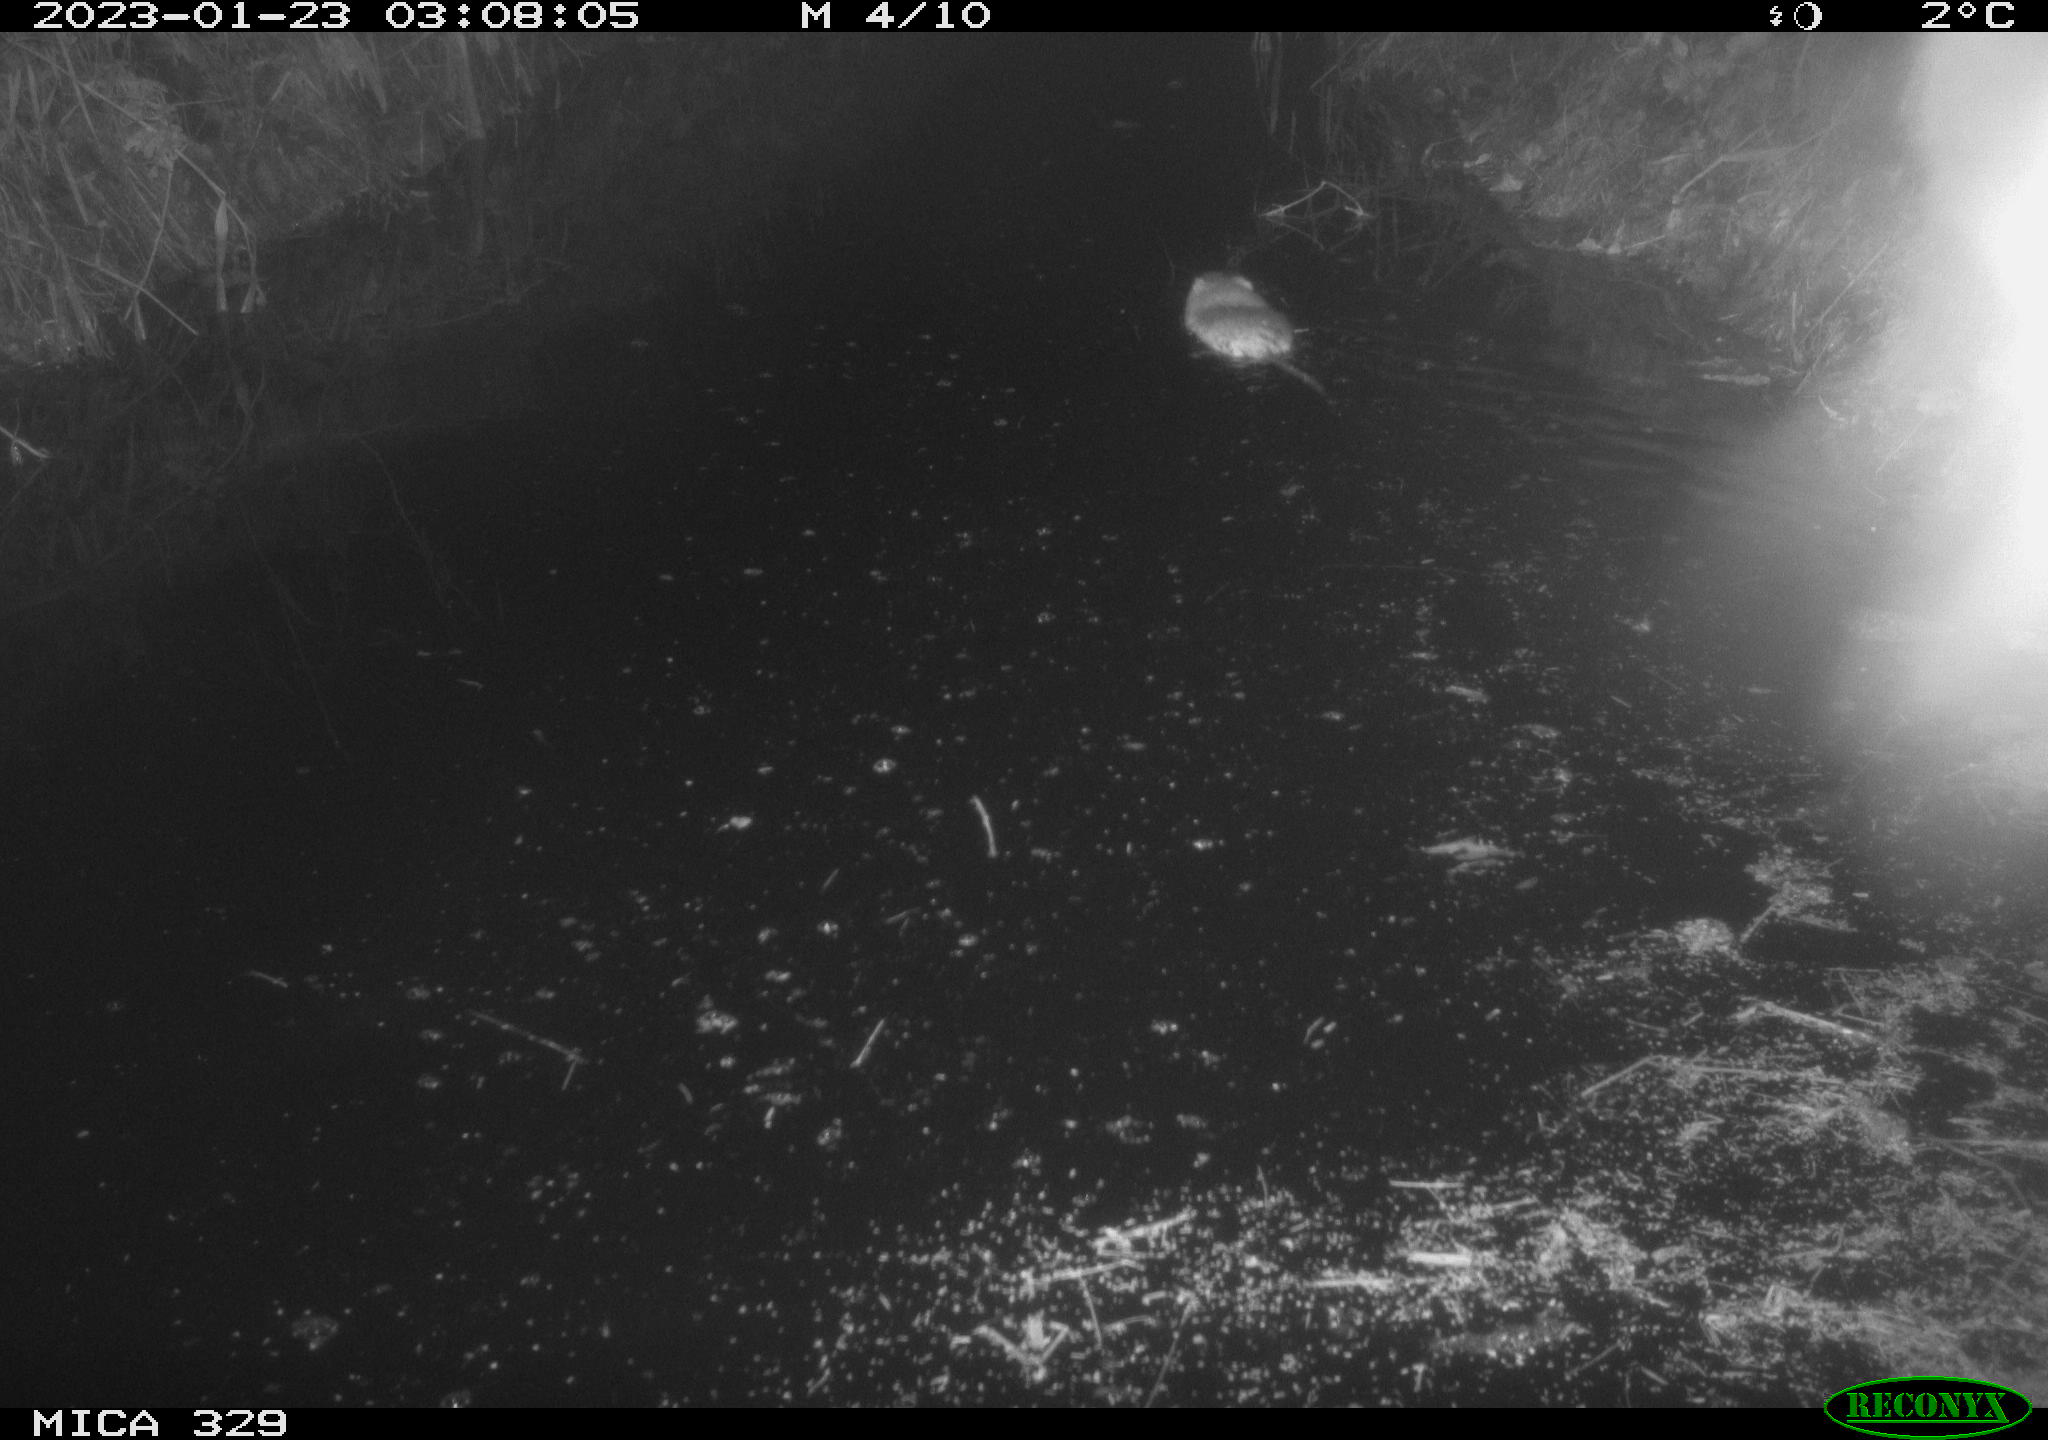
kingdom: Animalia
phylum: Chordata
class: Mammalia
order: Rodentia
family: Cricetidae
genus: Ondatra
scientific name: Ondatra zibethicus
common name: Muskrat
